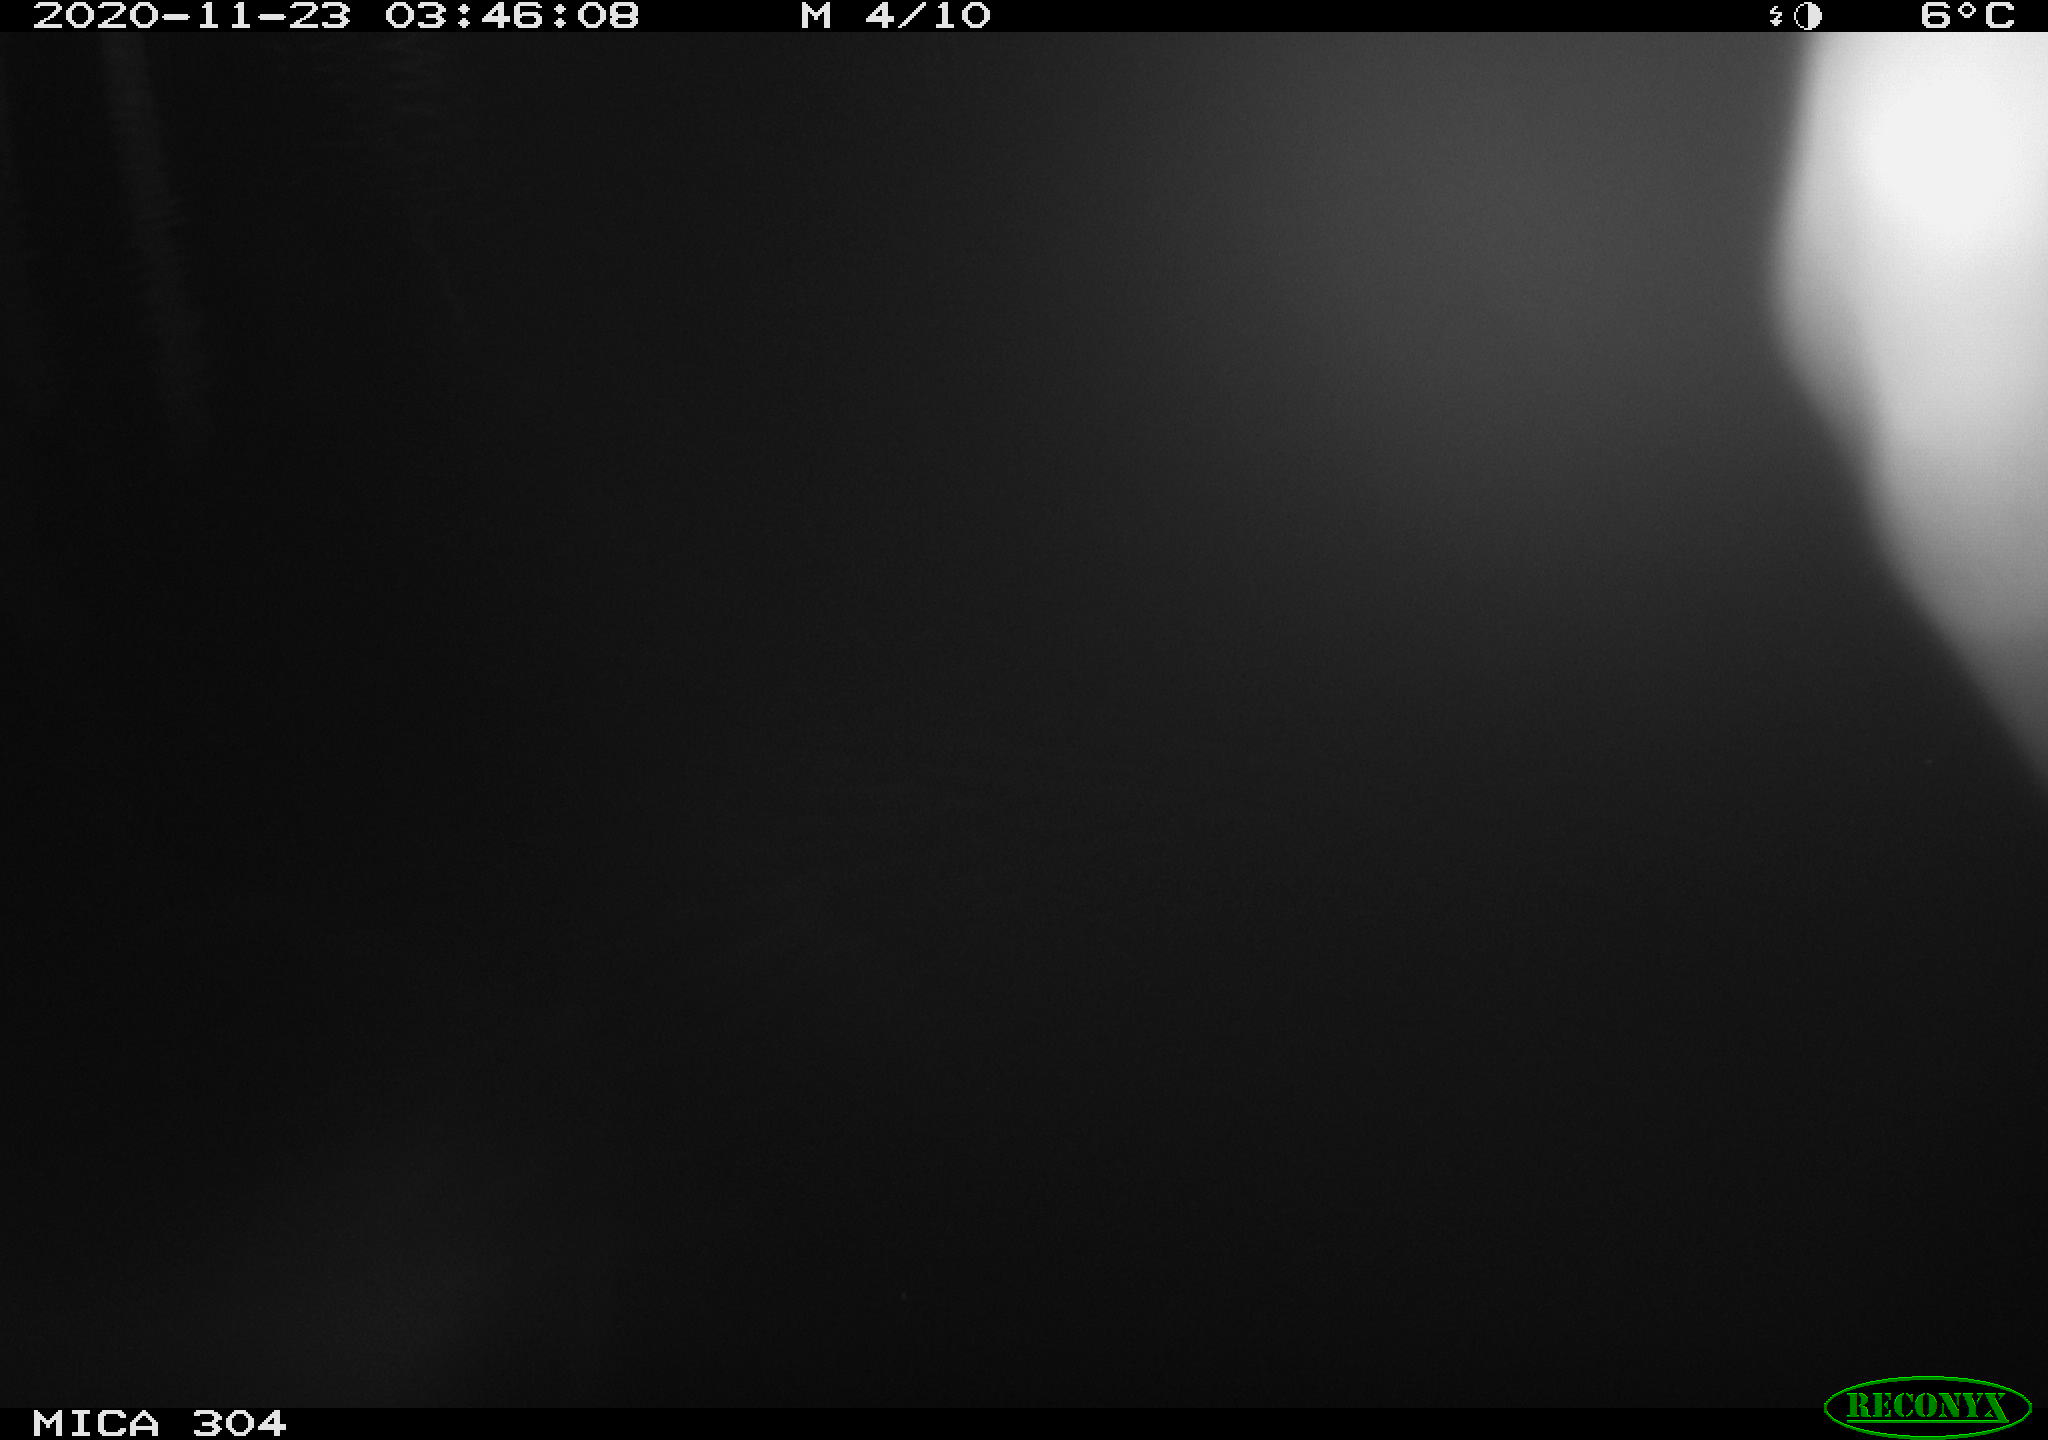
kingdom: Animalia
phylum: Chordata
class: Mammalia
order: Rodentia
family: Muridae
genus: Rattus
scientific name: Rattus norvegicus
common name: Brown rat
